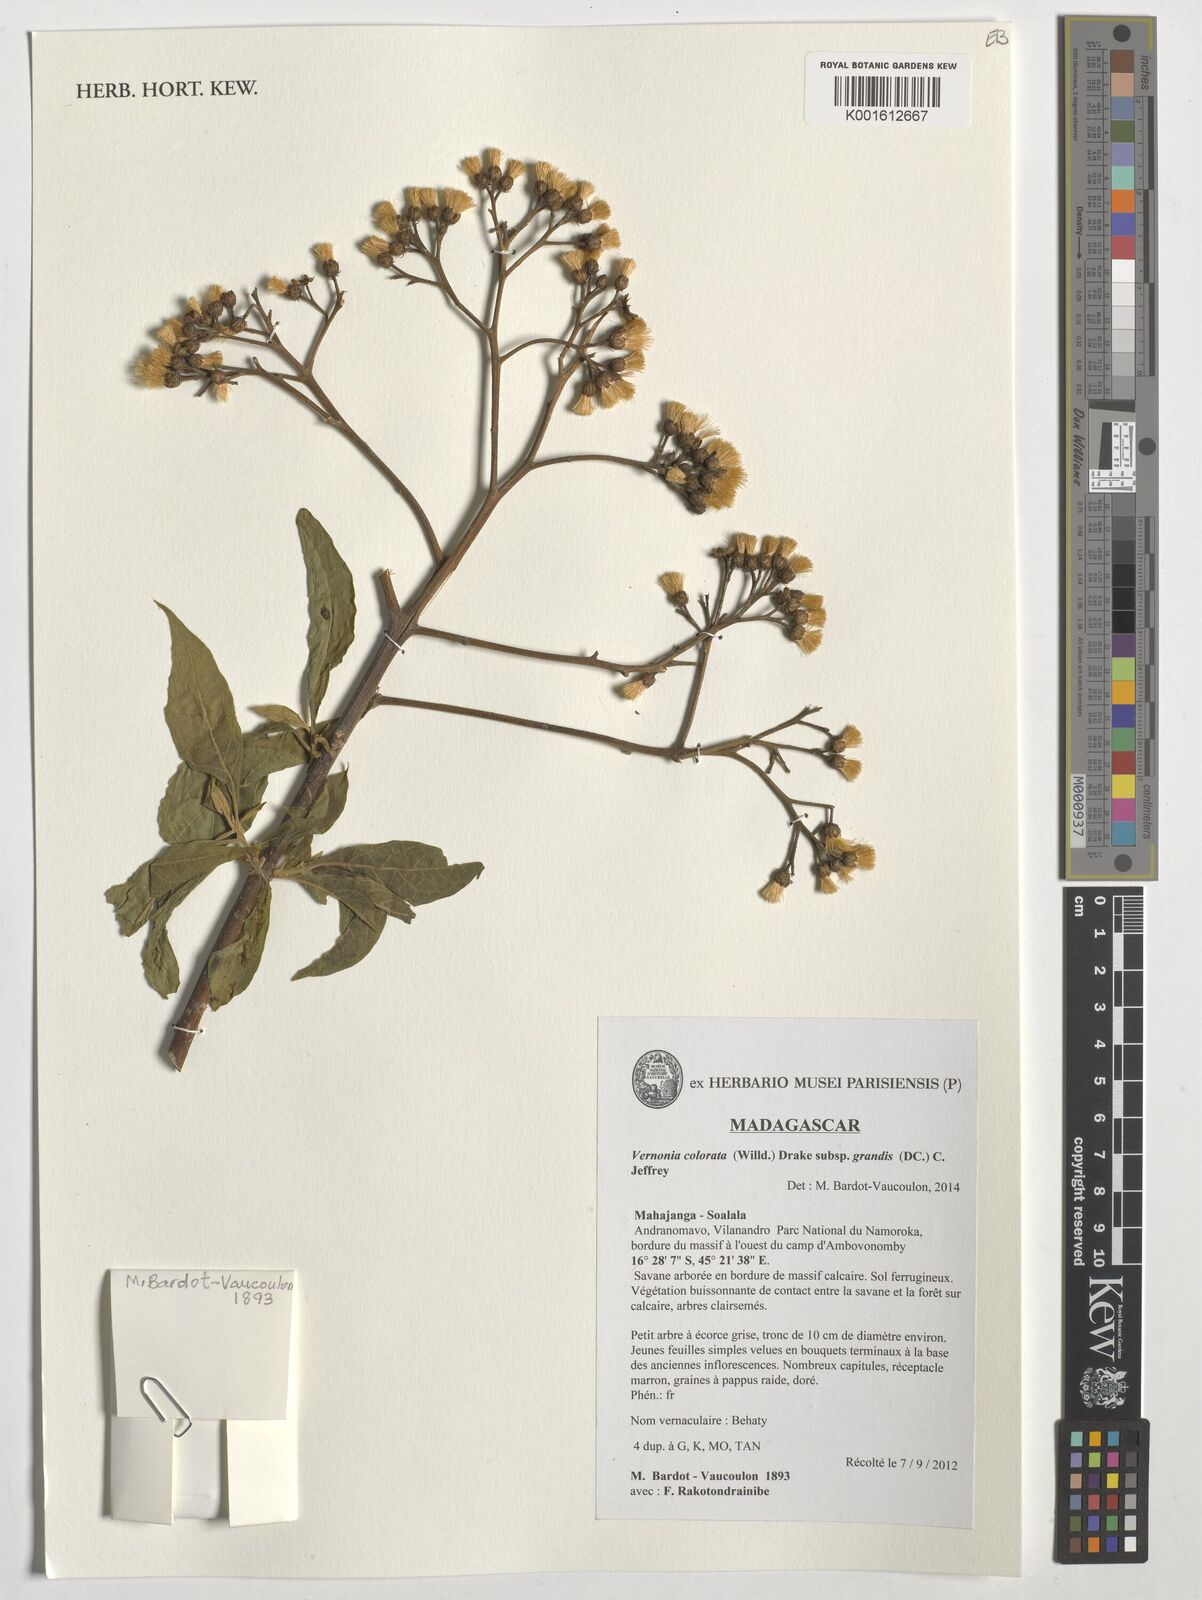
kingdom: Plantae
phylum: Tracheophyta
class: Magnoliopsida
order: Asterales
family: Asteraceae
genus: Vernonia
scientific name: Vernonia colorata
